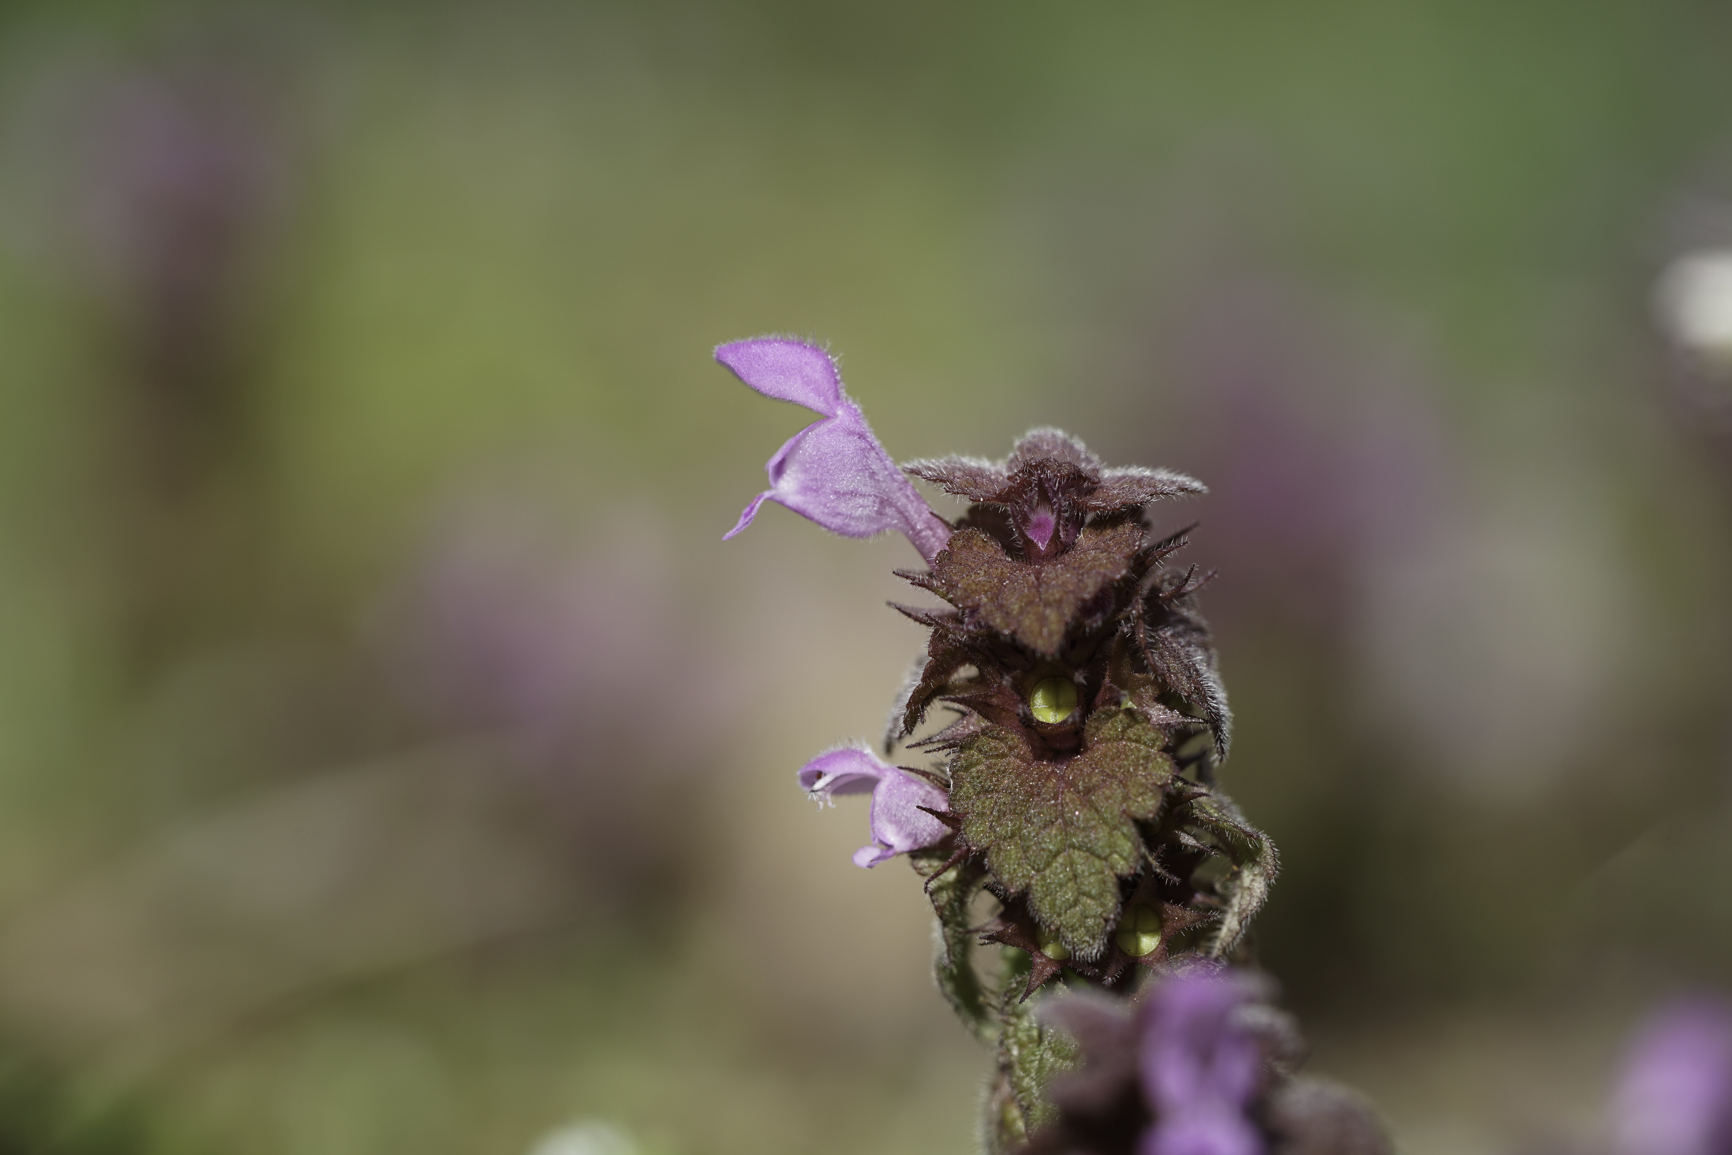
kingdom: Plantae
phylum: Tracheophyta
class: Magnoliopsida
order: Lamiales
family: Lamiaceae
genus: Lamium
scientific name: Lamium maculatum
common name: Spotted dead-nettle
